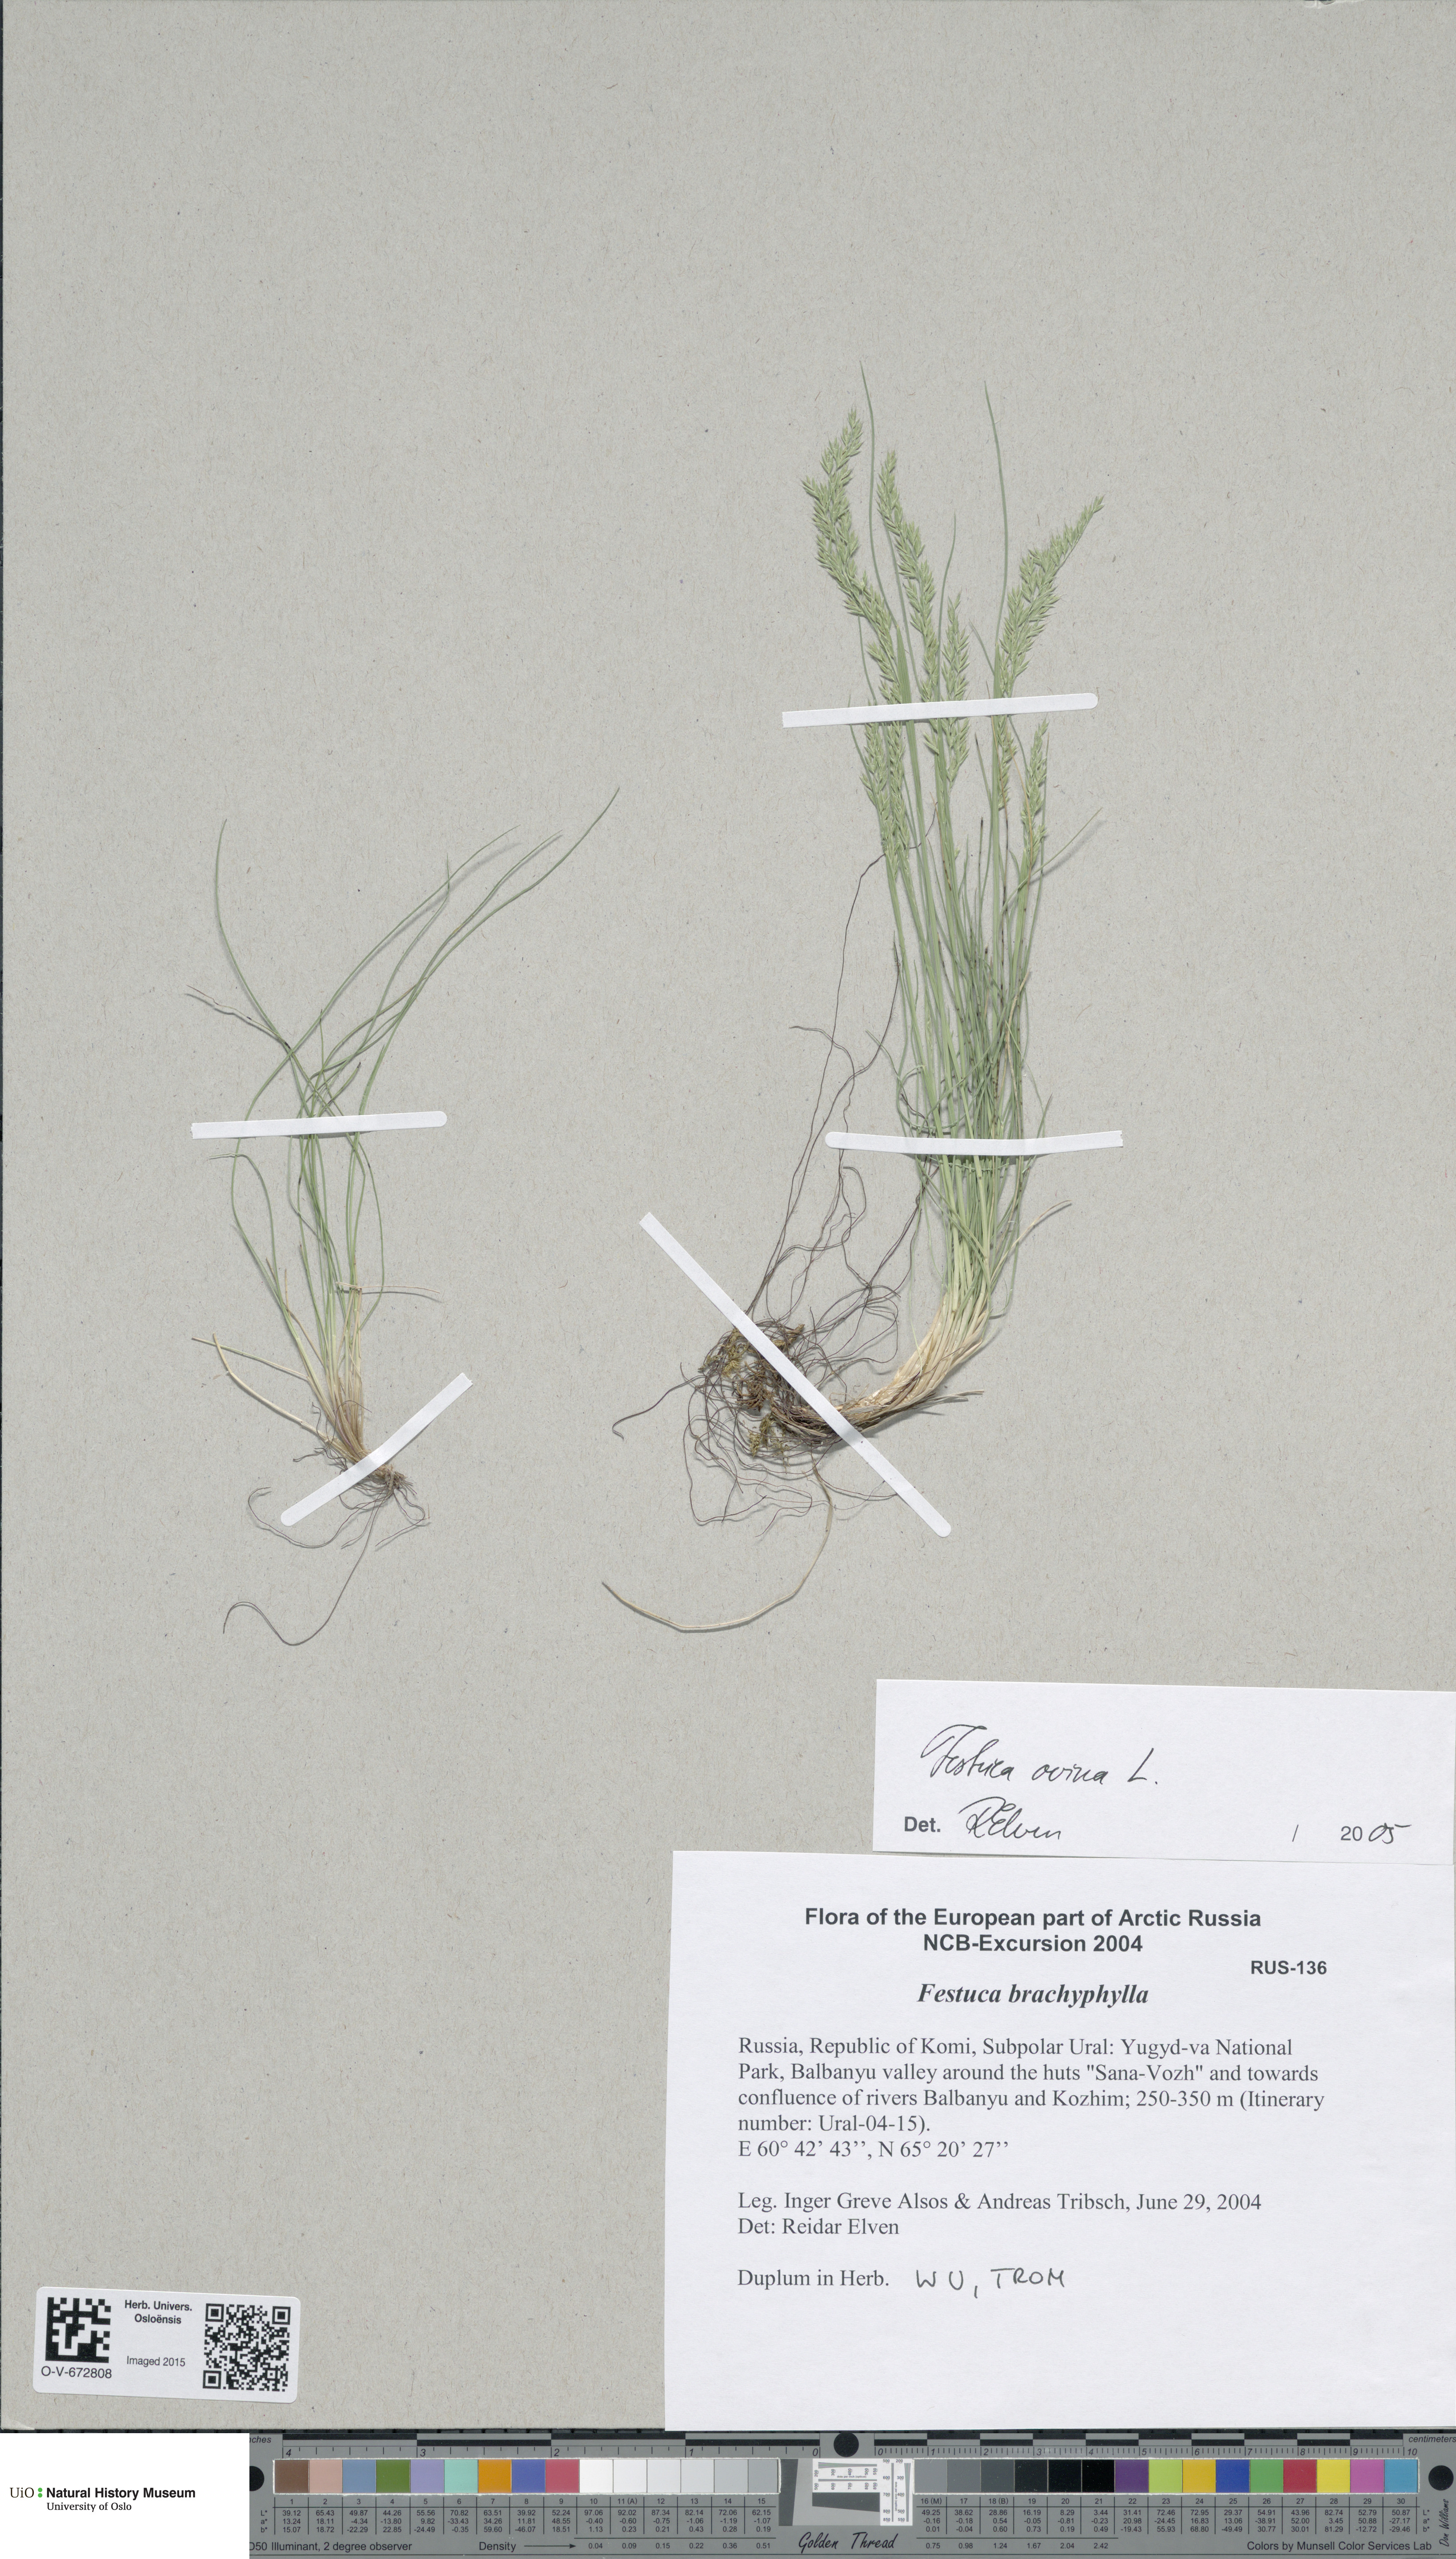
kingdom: Plantae
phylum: Tracheophyta
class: Liliopsida
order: Poales
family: Poaceae
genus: Festuca
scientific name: Festuca ovina
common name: Sheep fescue
